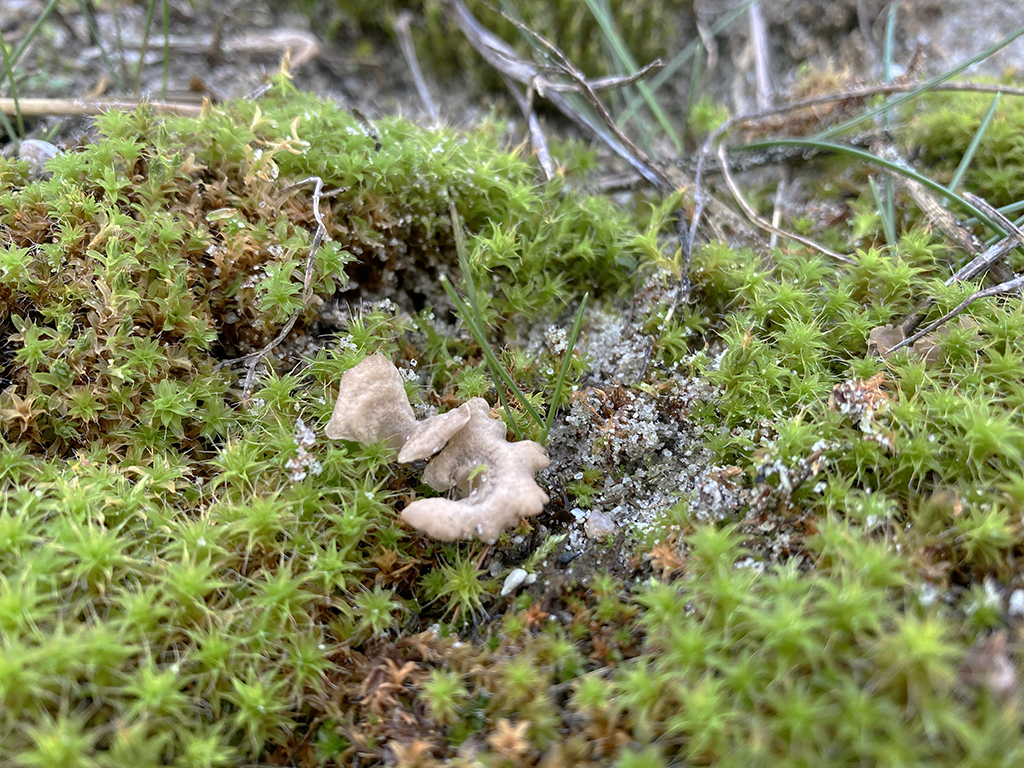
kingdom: Fungi
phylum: Basidiomycota
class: Agaricomycetes
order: Agaricales
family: Hygrophoraceae
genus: Arrhenia
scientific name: Arrhenia spathulata
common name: skæv fontænehat
